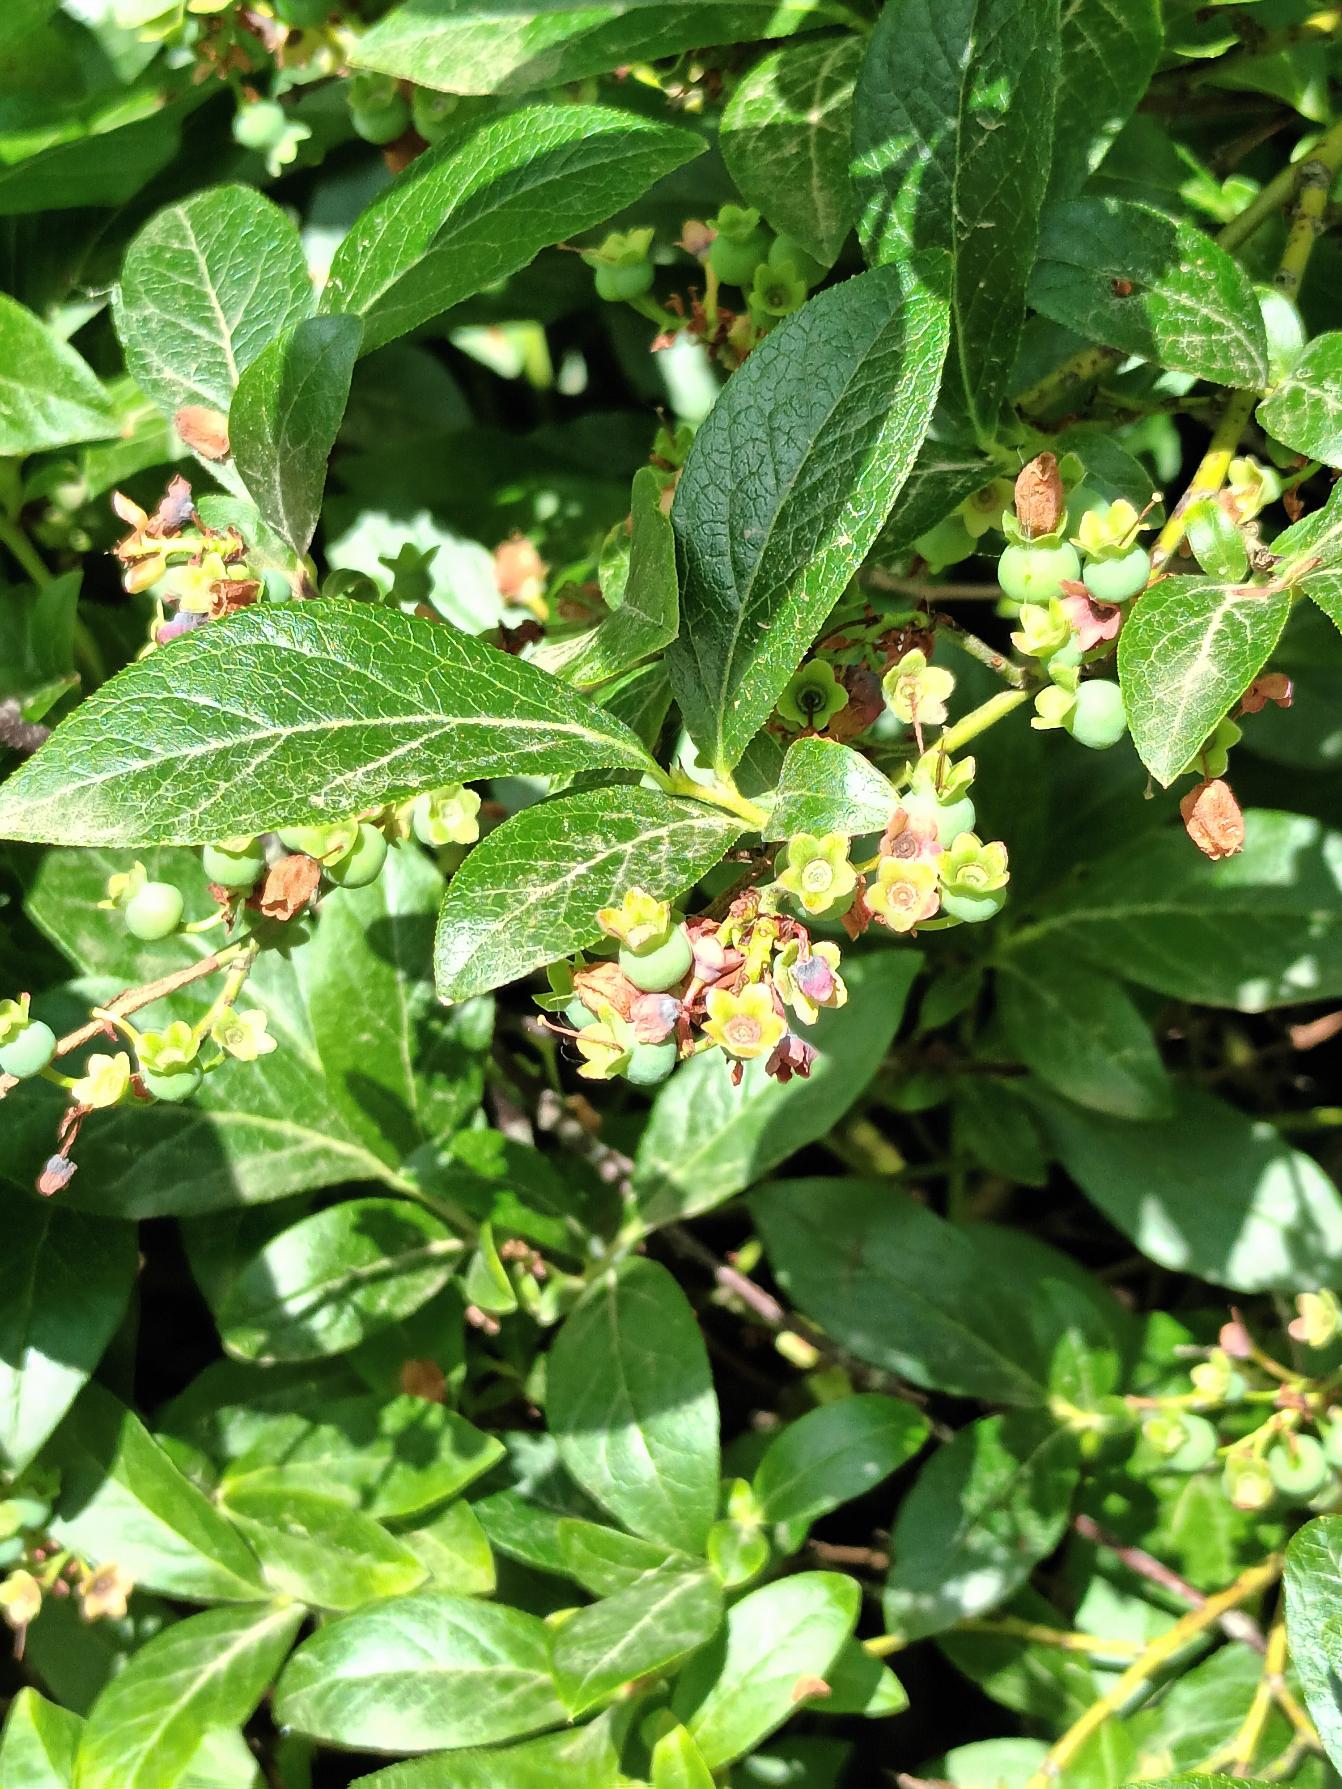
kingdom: Plantae
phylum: Tracheophyta
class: Magnoliopsida
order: Ericales
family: Ericaceae
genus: Vaccinium
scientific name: Vaccinium corymbosum
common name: Amerikansk blåbær
